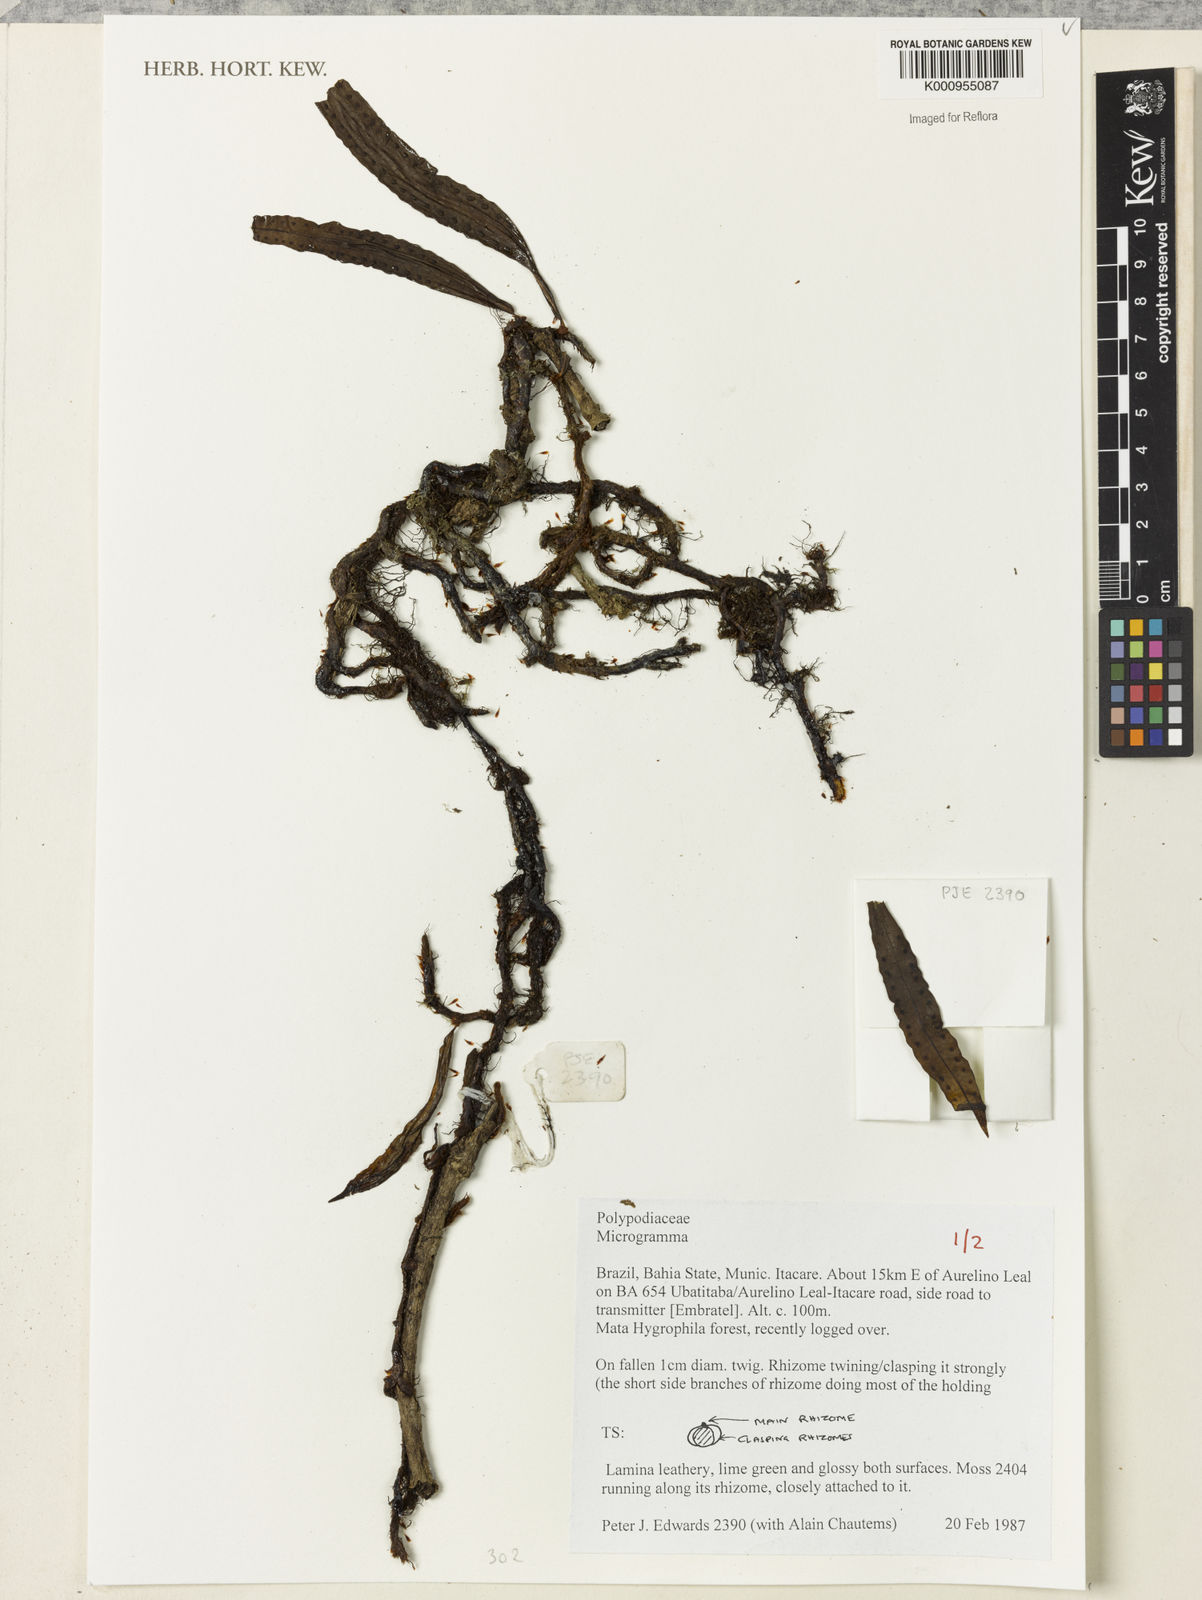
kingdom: Plantae
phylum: Tracheophyta
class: Polypodiopsida
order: Polypodiales
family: Polypodiaceae
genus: Microgramma
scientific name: Microgramma
